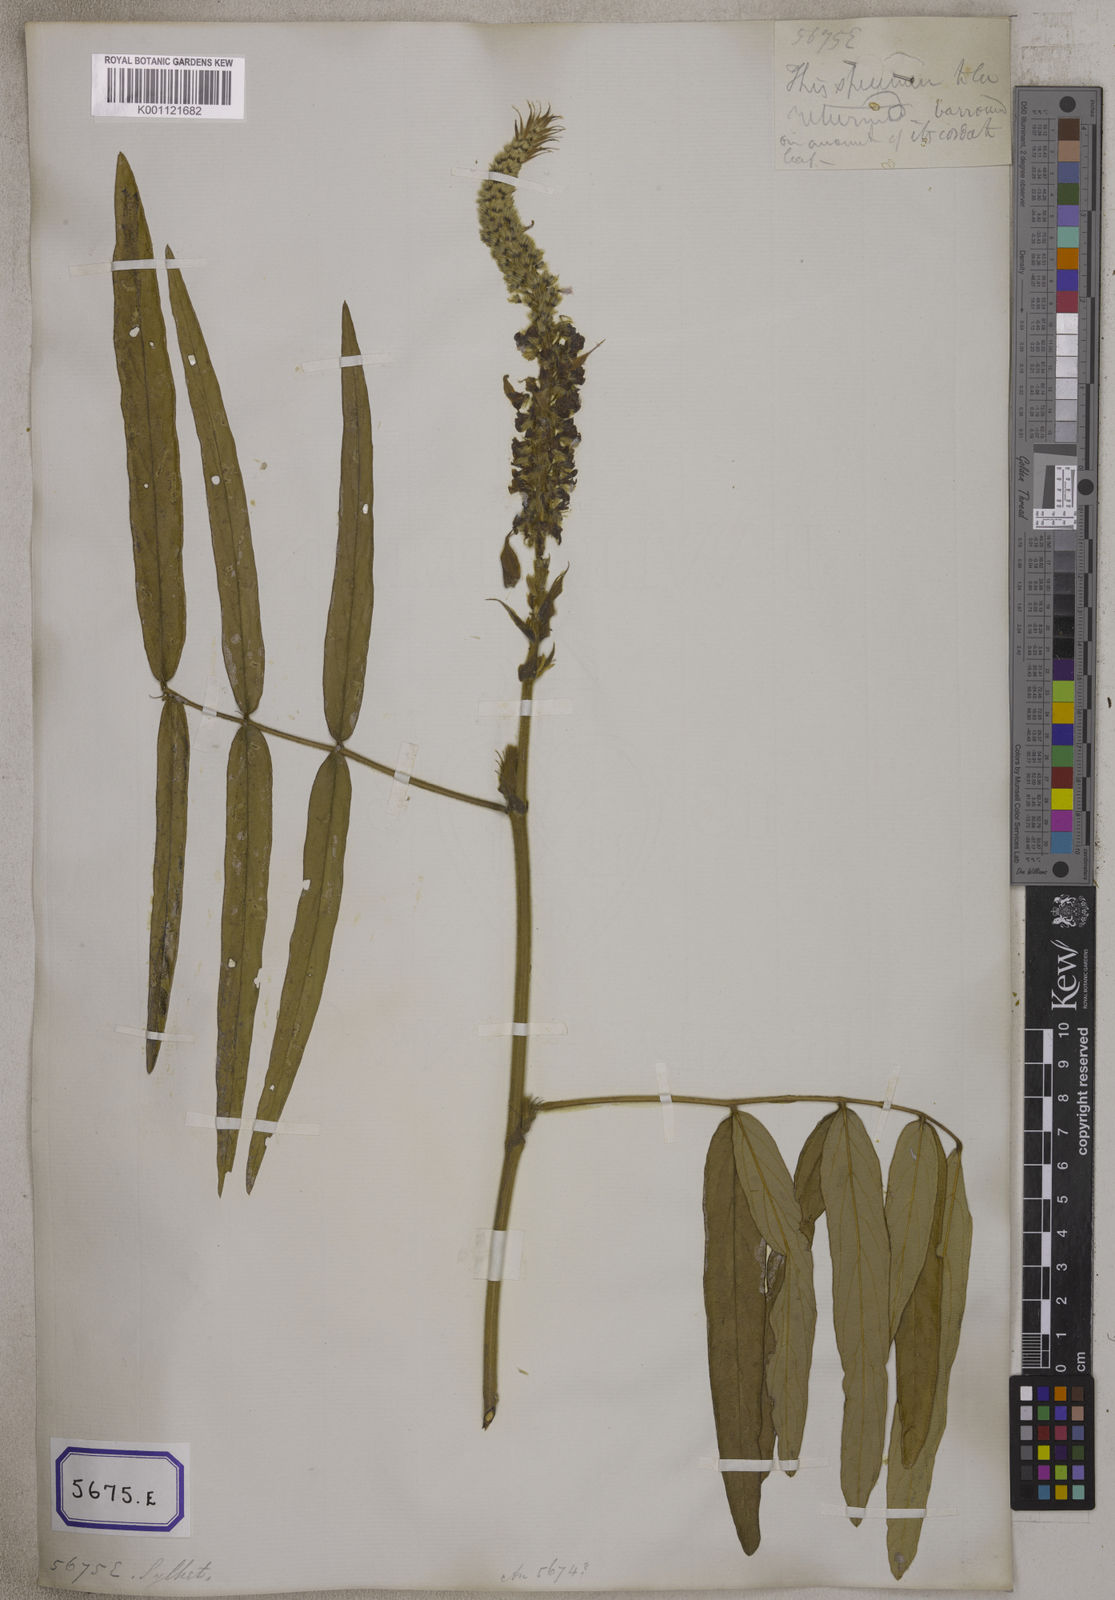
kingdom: Plantae
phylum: Tracheophyta
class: Magnoliopsida
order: Fabales
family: Fabaceae
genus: Uraria
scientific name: Uraria
